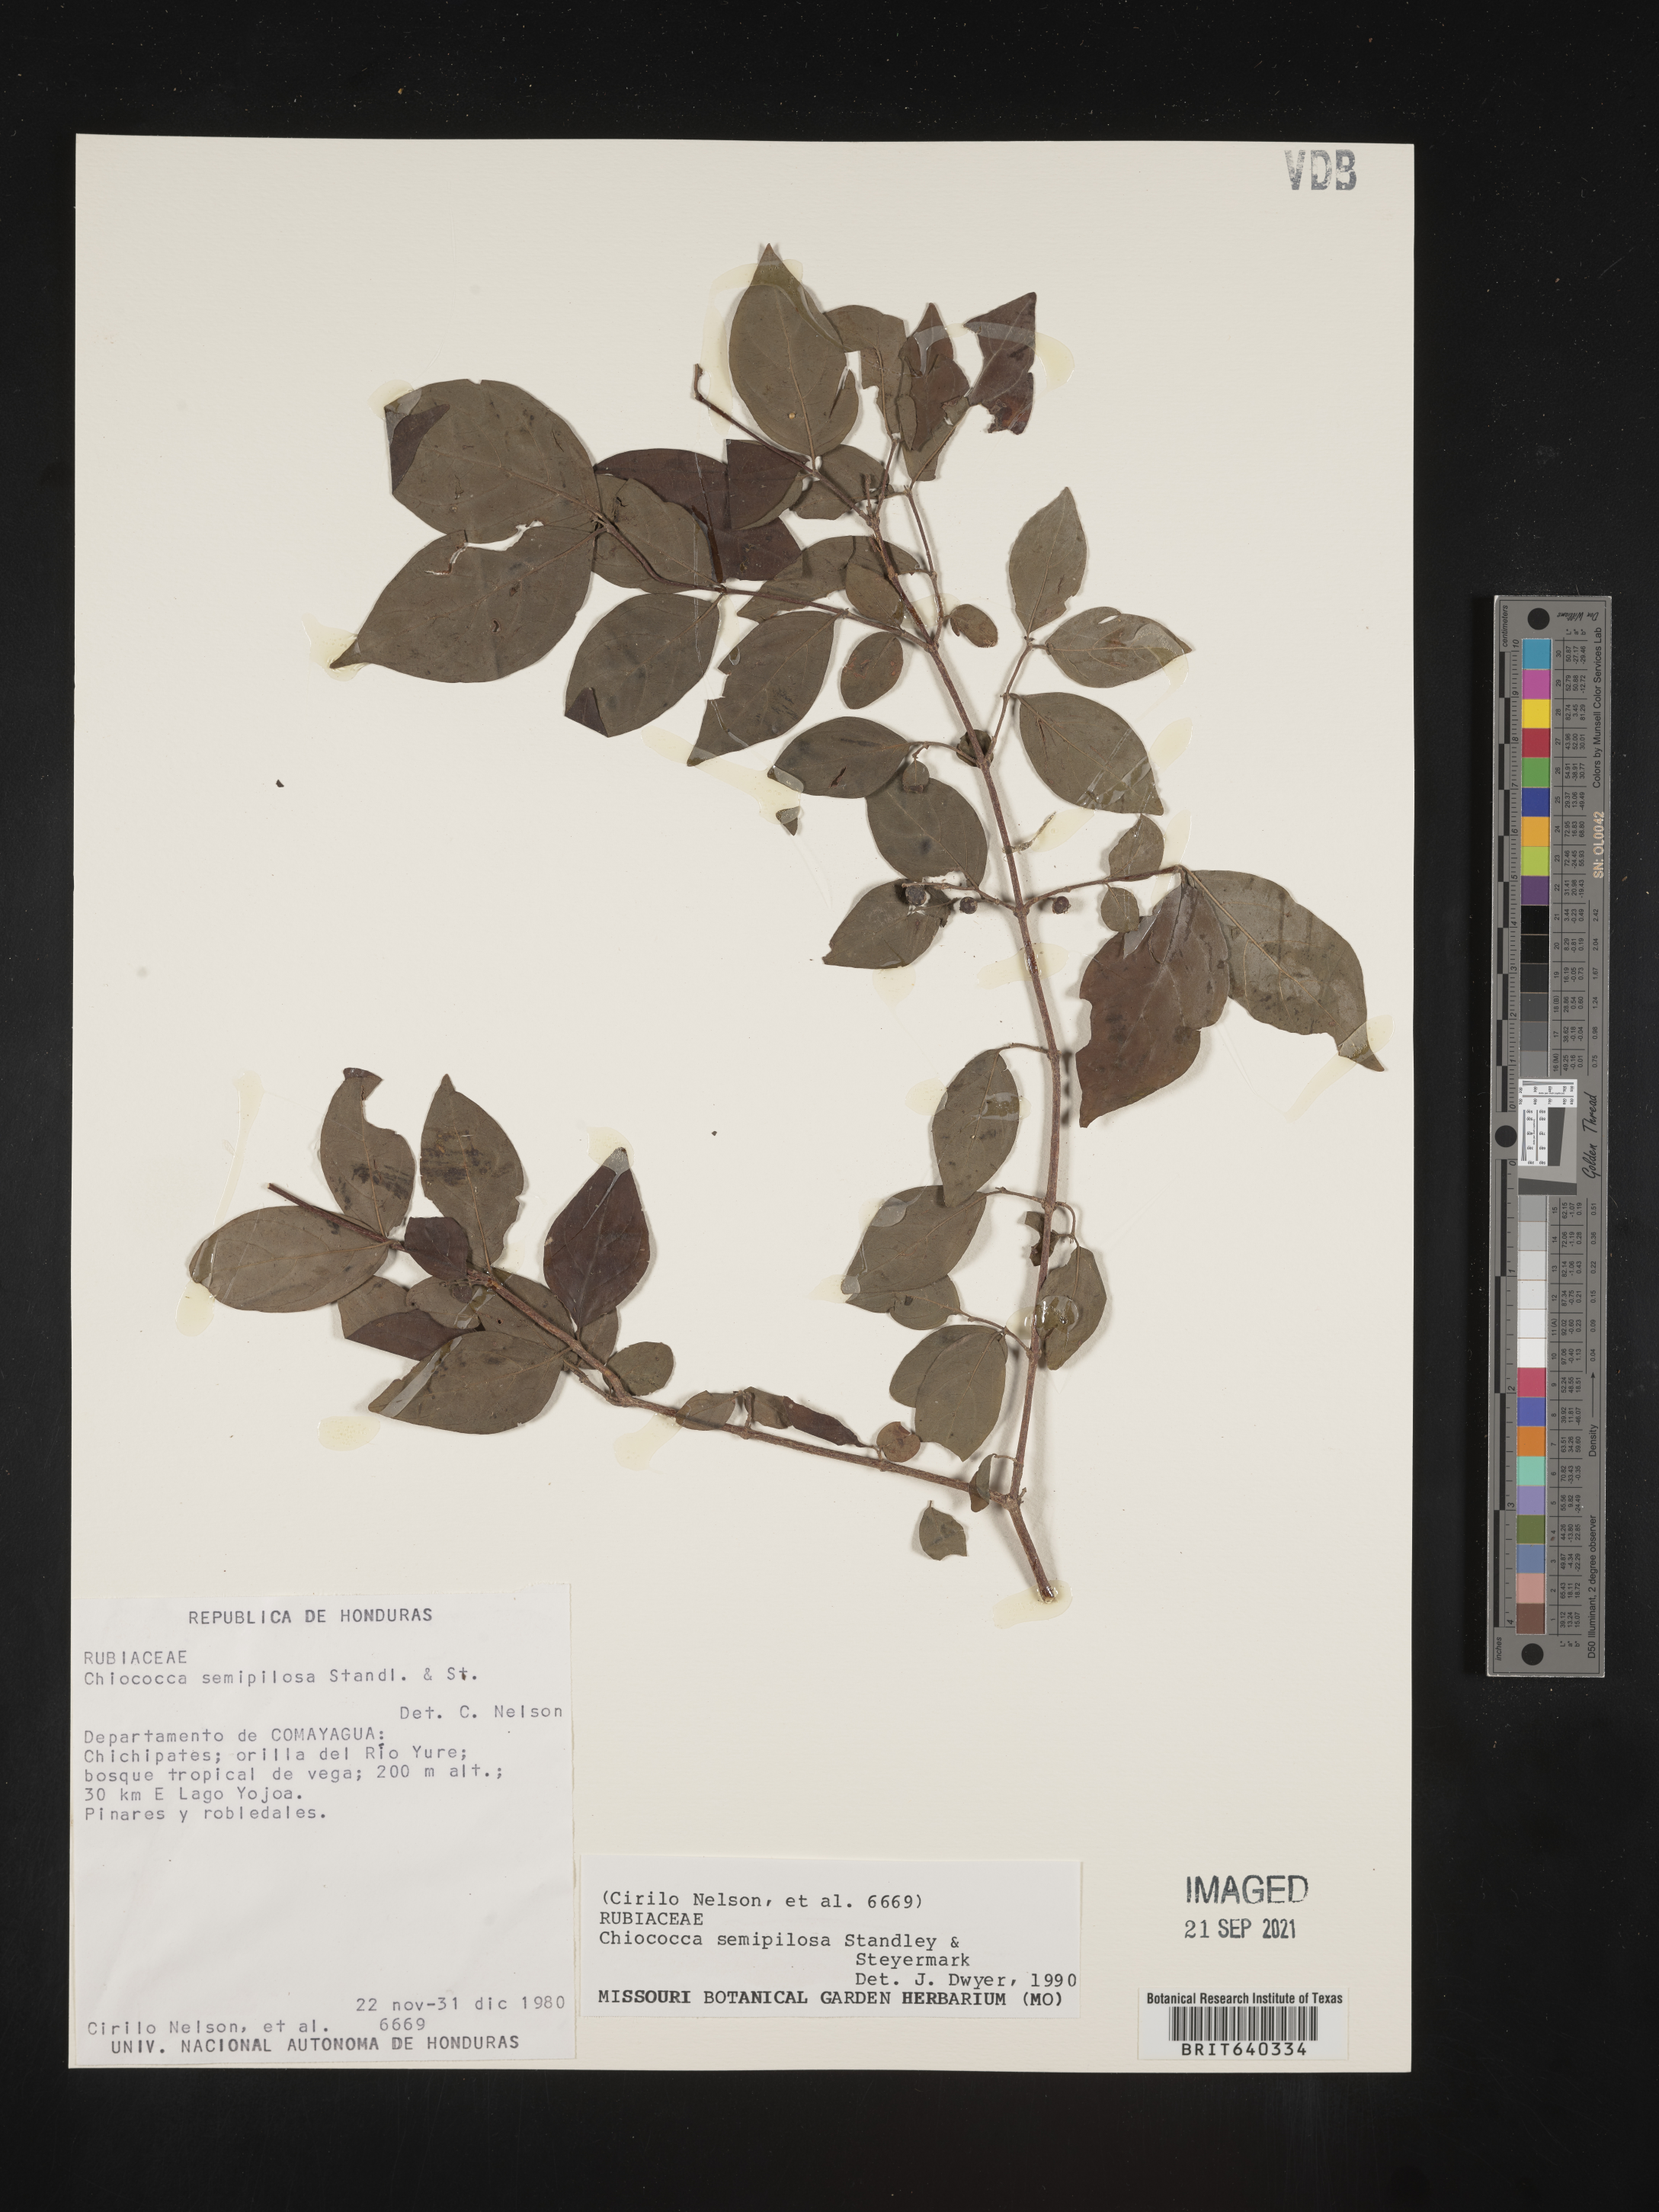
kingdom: Plantae
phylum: Tracheophyta
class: Magnoliopsida
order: Gentianales
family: Rubiaceae
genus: Chiococca
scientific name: Chiococca
